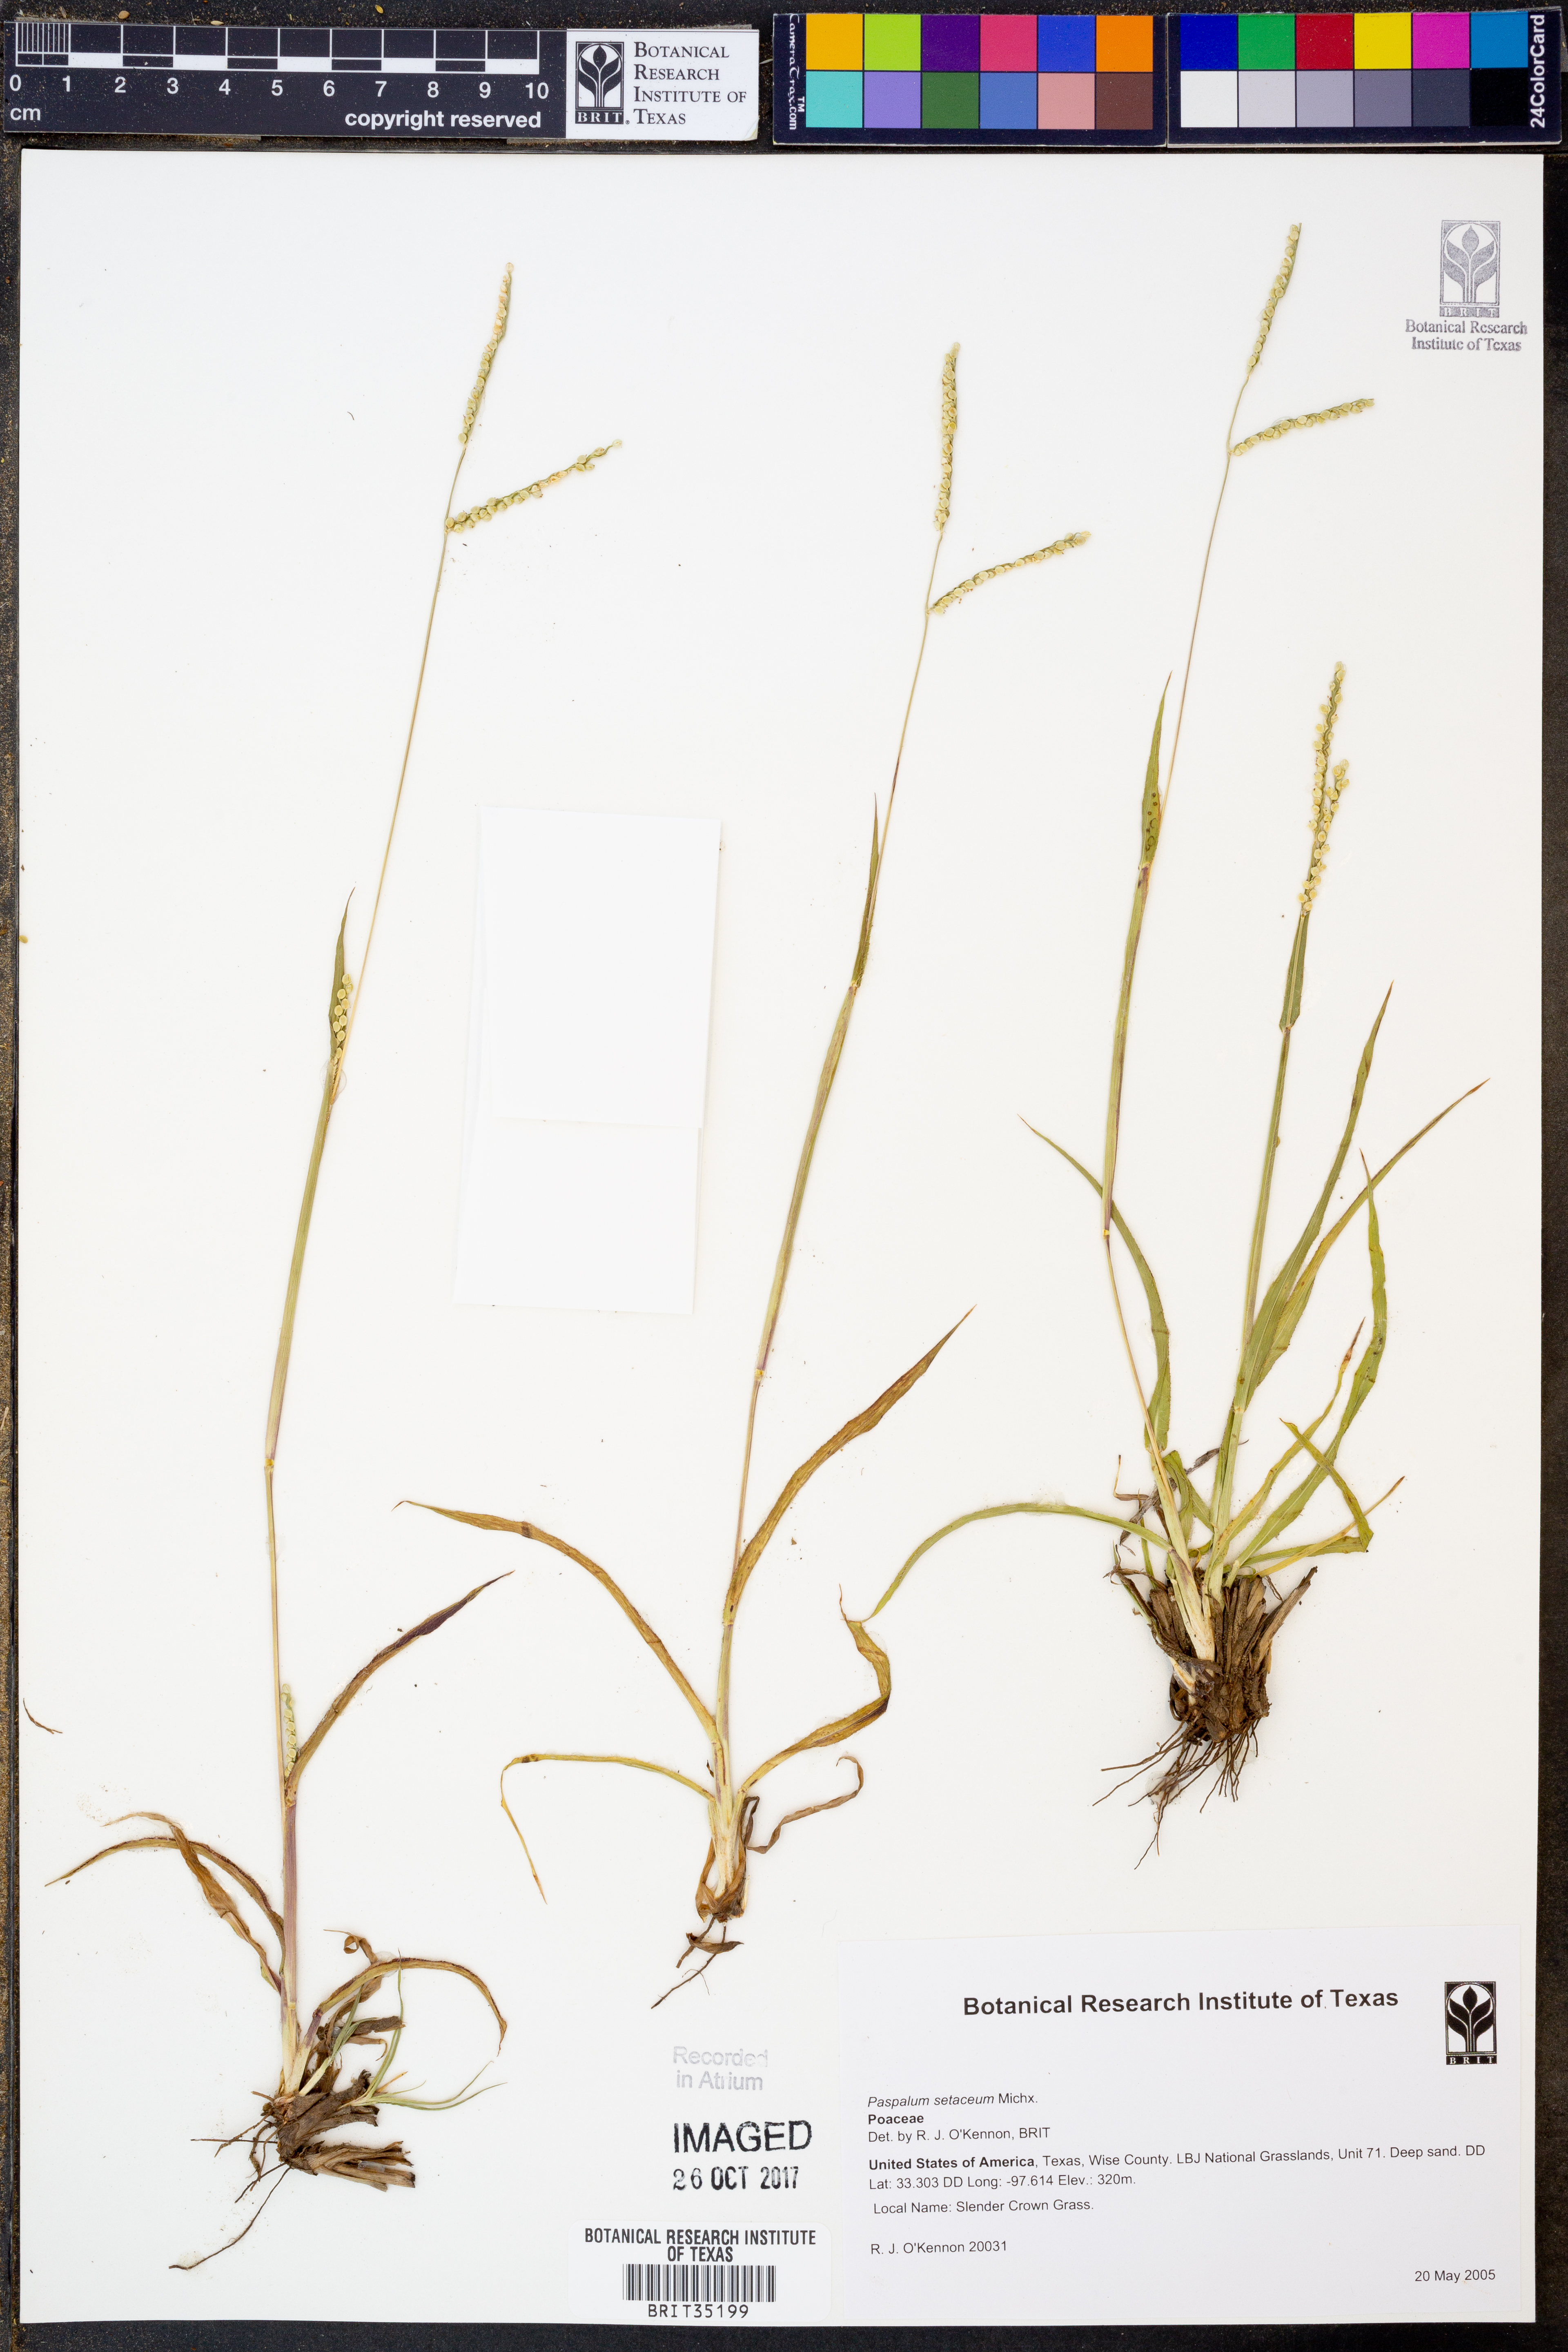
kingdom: Plantae
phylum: Tracheophyta
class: Liliopsida
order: Poales
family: Poaceae
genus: Paspalum
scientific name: Paspalum setaceum
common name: Slender paspalum
